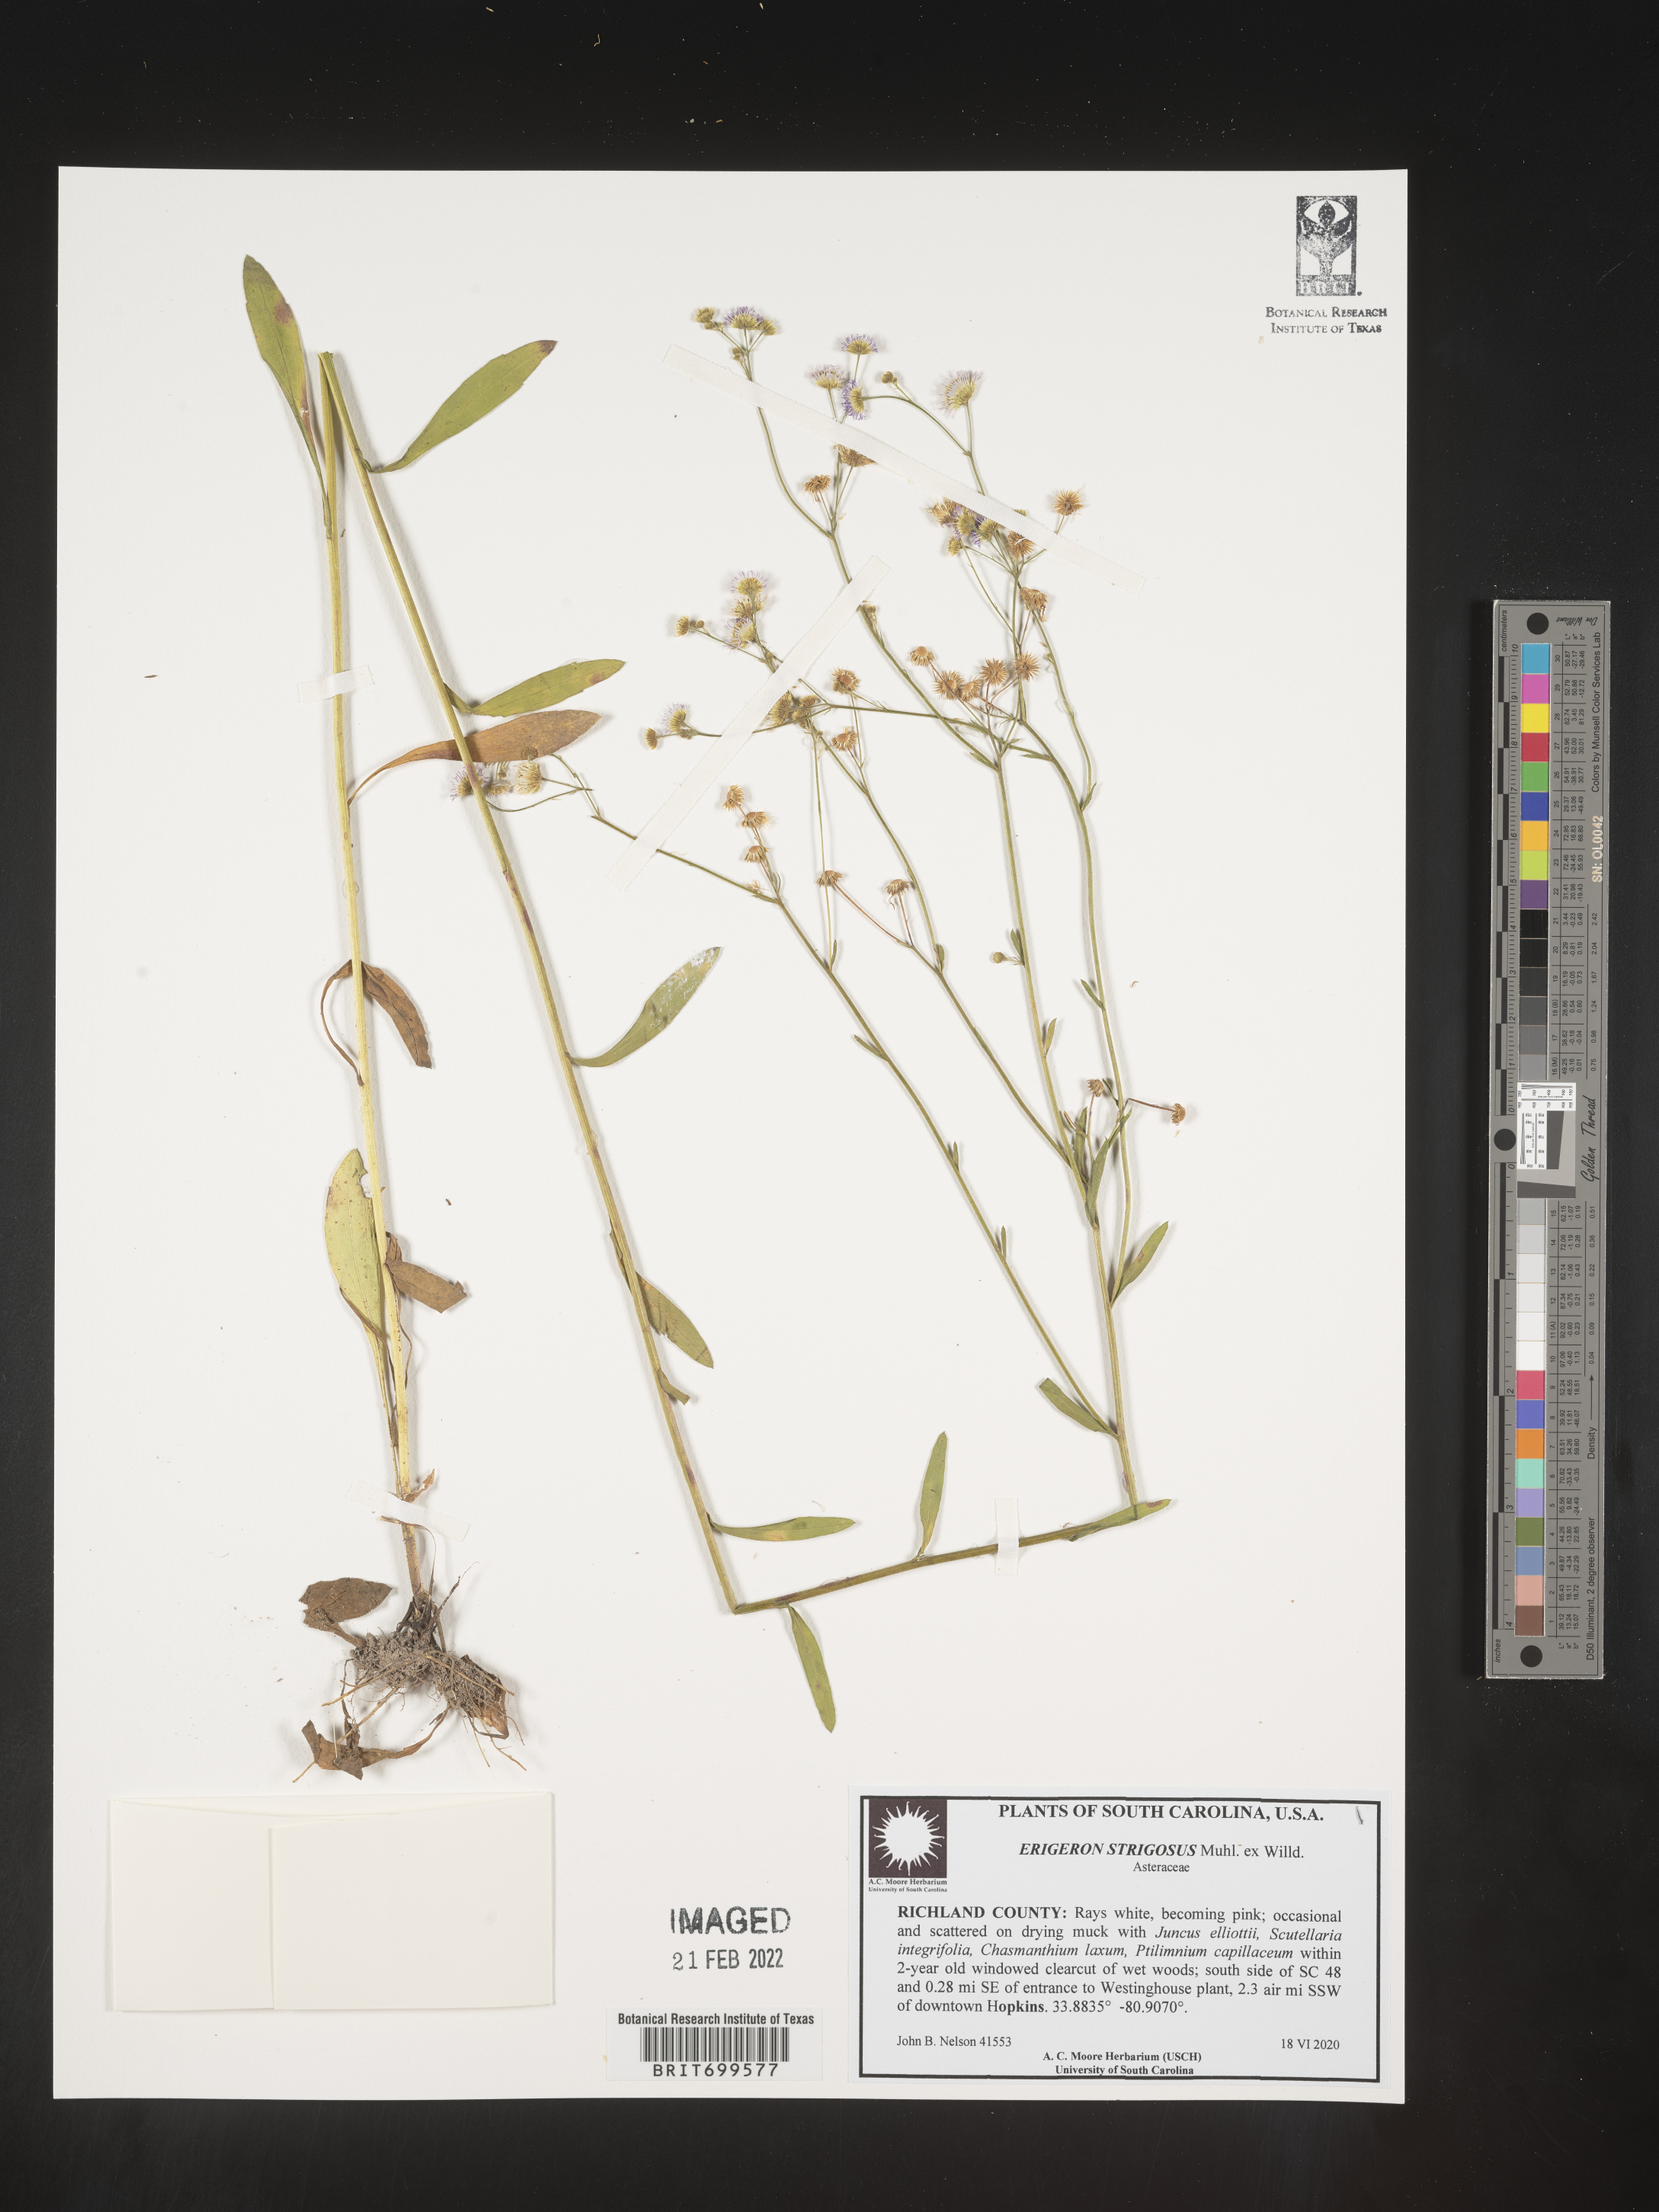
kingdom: Plantae
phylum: Tracheophyta
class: Magnoliopsida
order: Asterales
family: Asteraceae
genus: Erigeron
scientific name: Erigeron strigosus
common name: Common eastern fleabane
